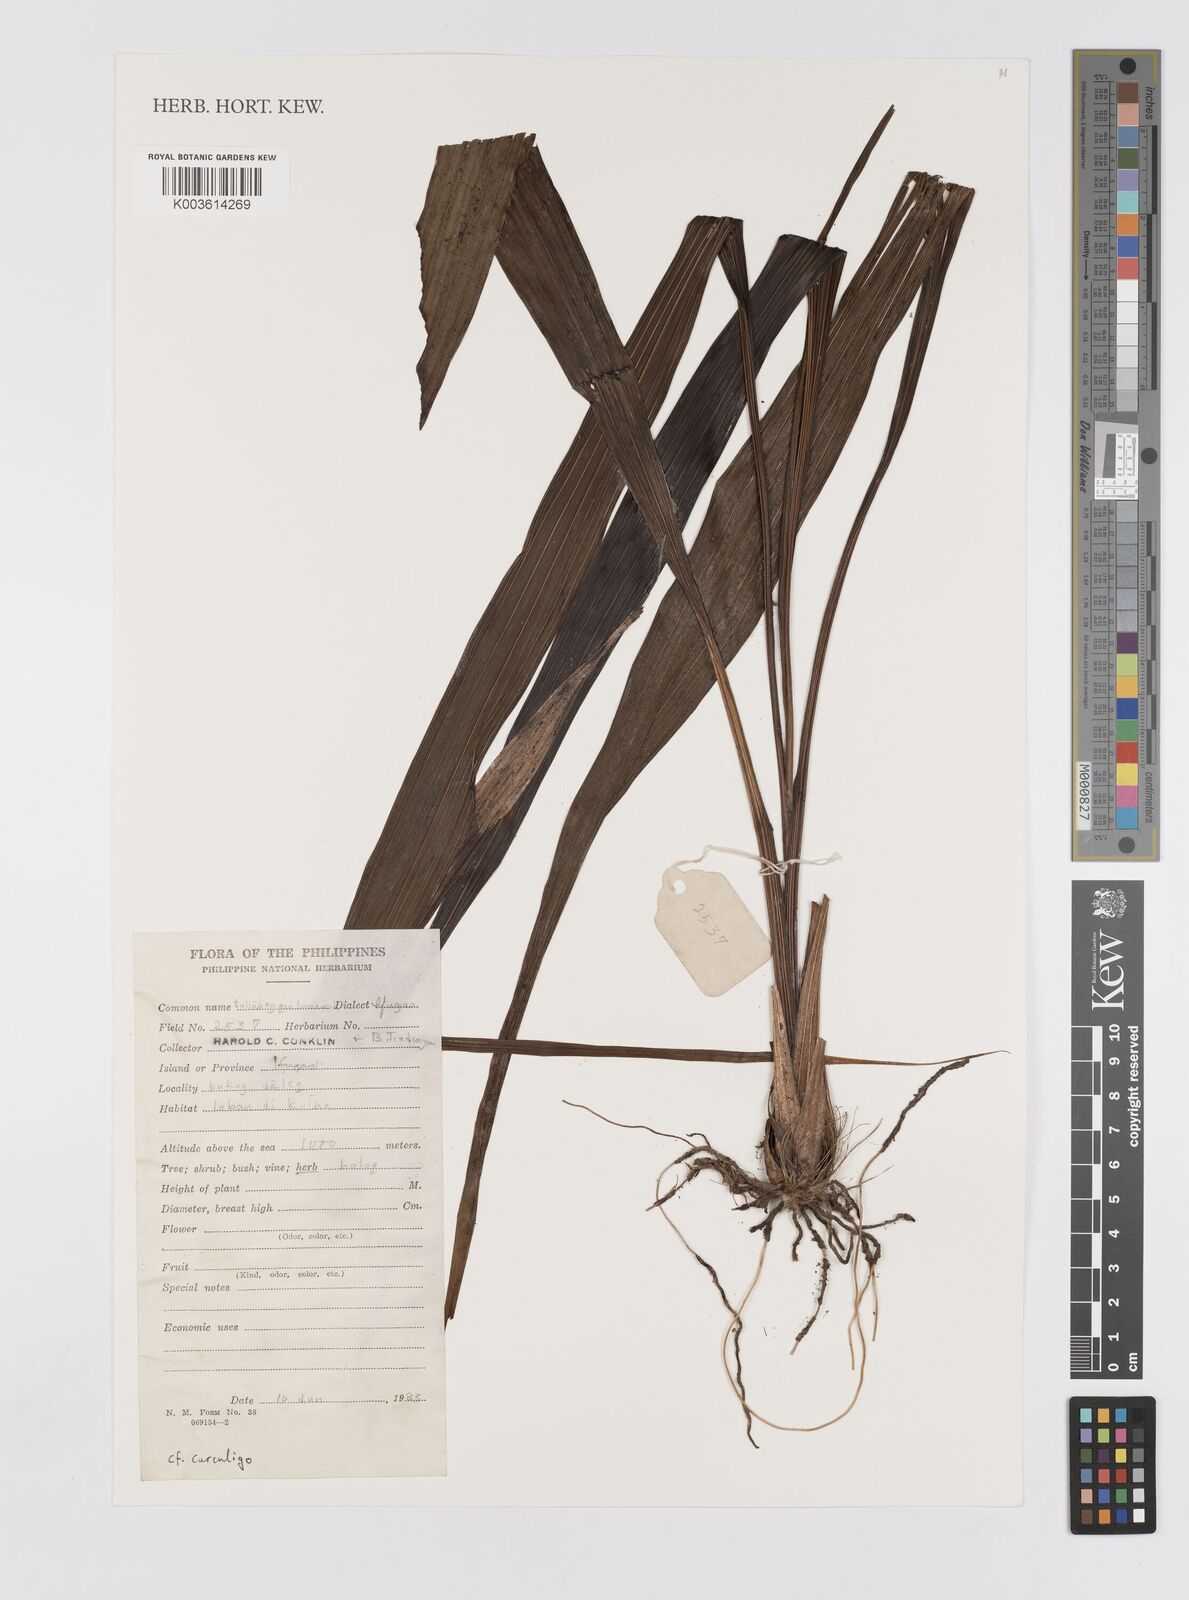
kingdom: Plantae
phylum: Tracheophyta
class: Liliopsida
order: Asparagales
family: Hypoxidaceae
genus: Curculigo
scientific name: Curculigo
